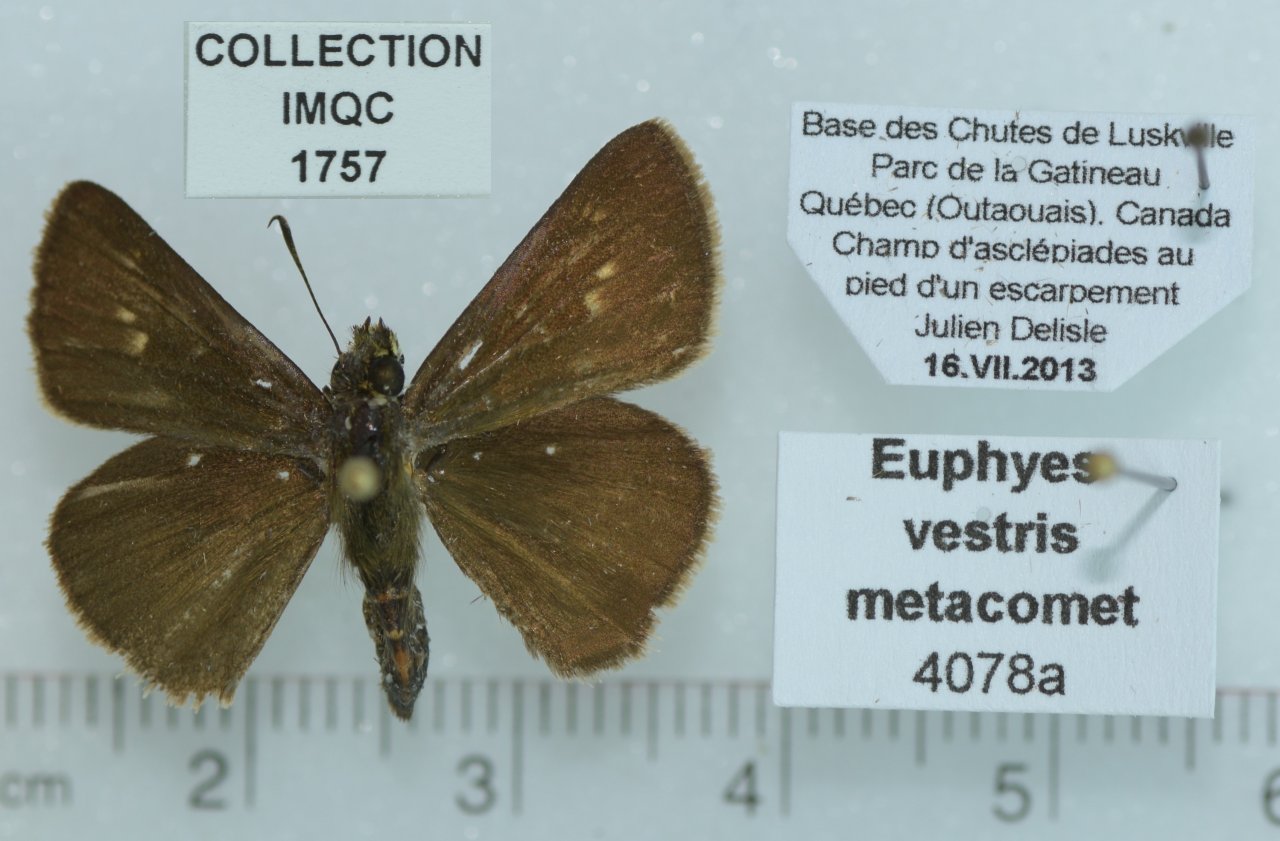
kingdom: Animalia
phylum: Arthropoda
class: Insecta
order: Lepidoptera
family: Hesperiidae
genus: Euphyes
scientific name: Euphyes vestris
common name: Dun Skipper
